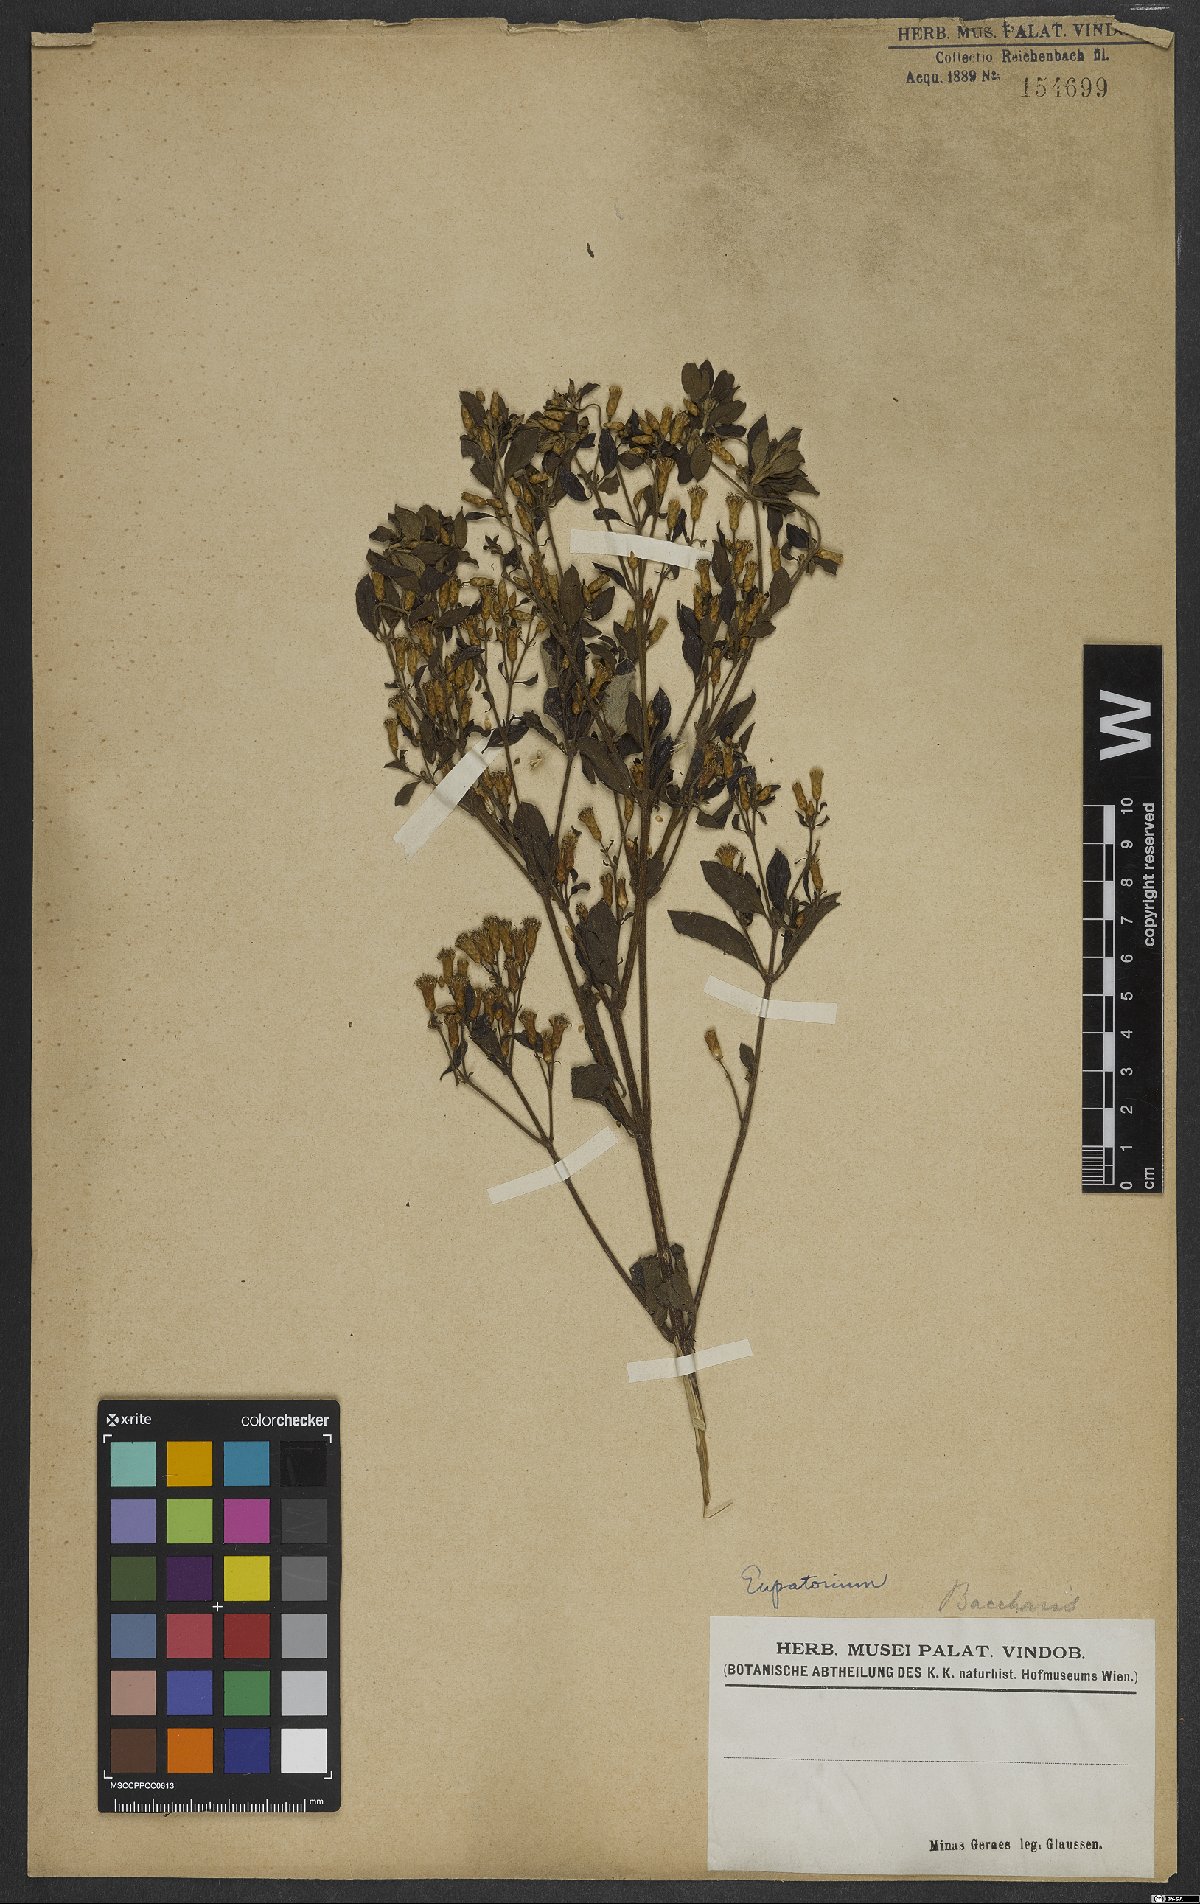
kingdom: Plantae
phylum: Tracheophyta
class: Magnoliopsida
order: Asterales
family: Asteraceae
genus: Grazielia
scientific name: Grazielia gaudichaudeana
